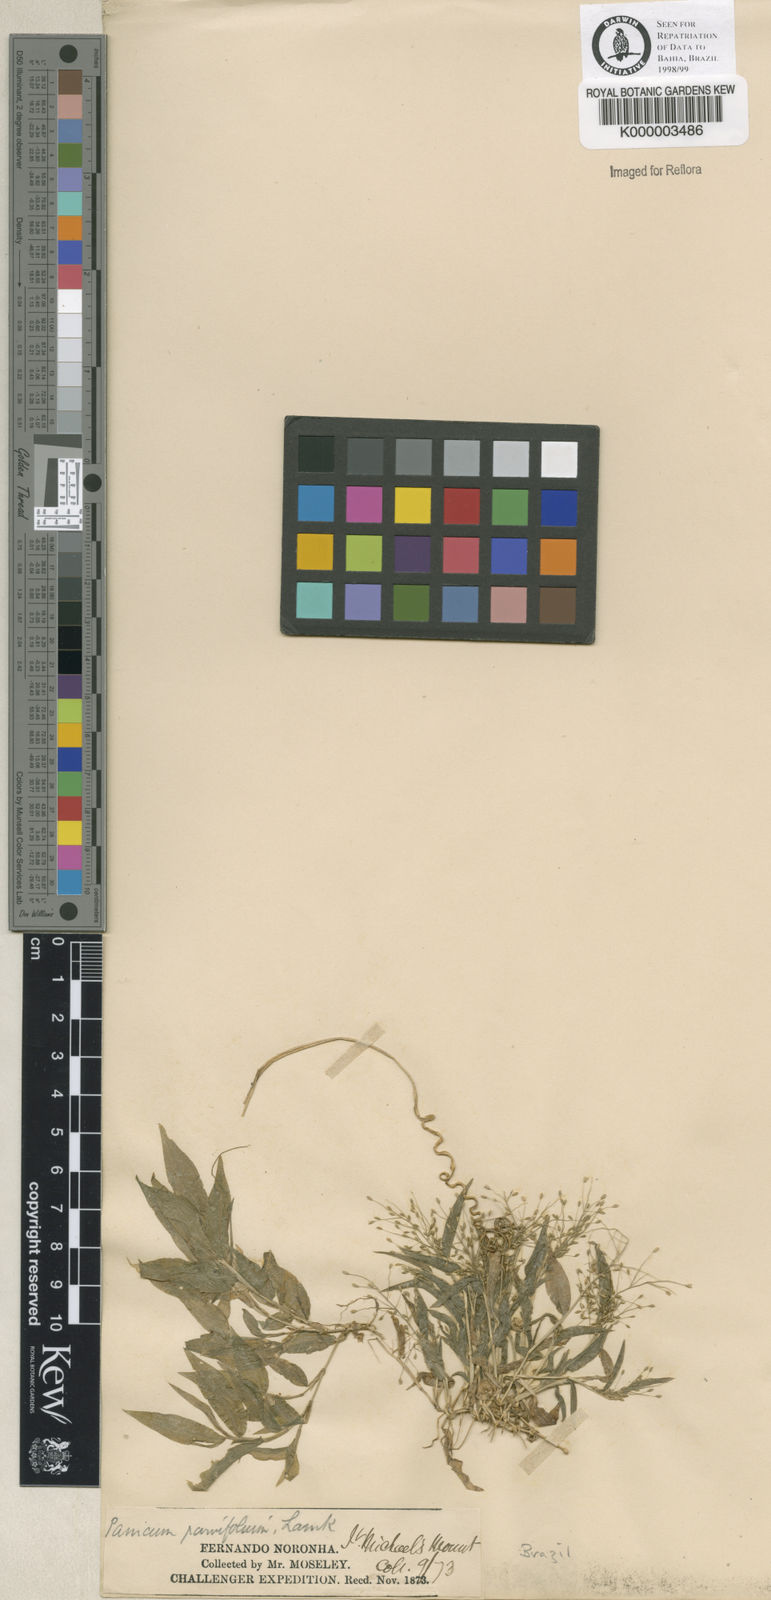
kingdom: Plantae
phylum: Tracheophyta
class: Liliopsida
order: Poales
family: Poaceae
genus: Panicum
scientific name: Panicum
